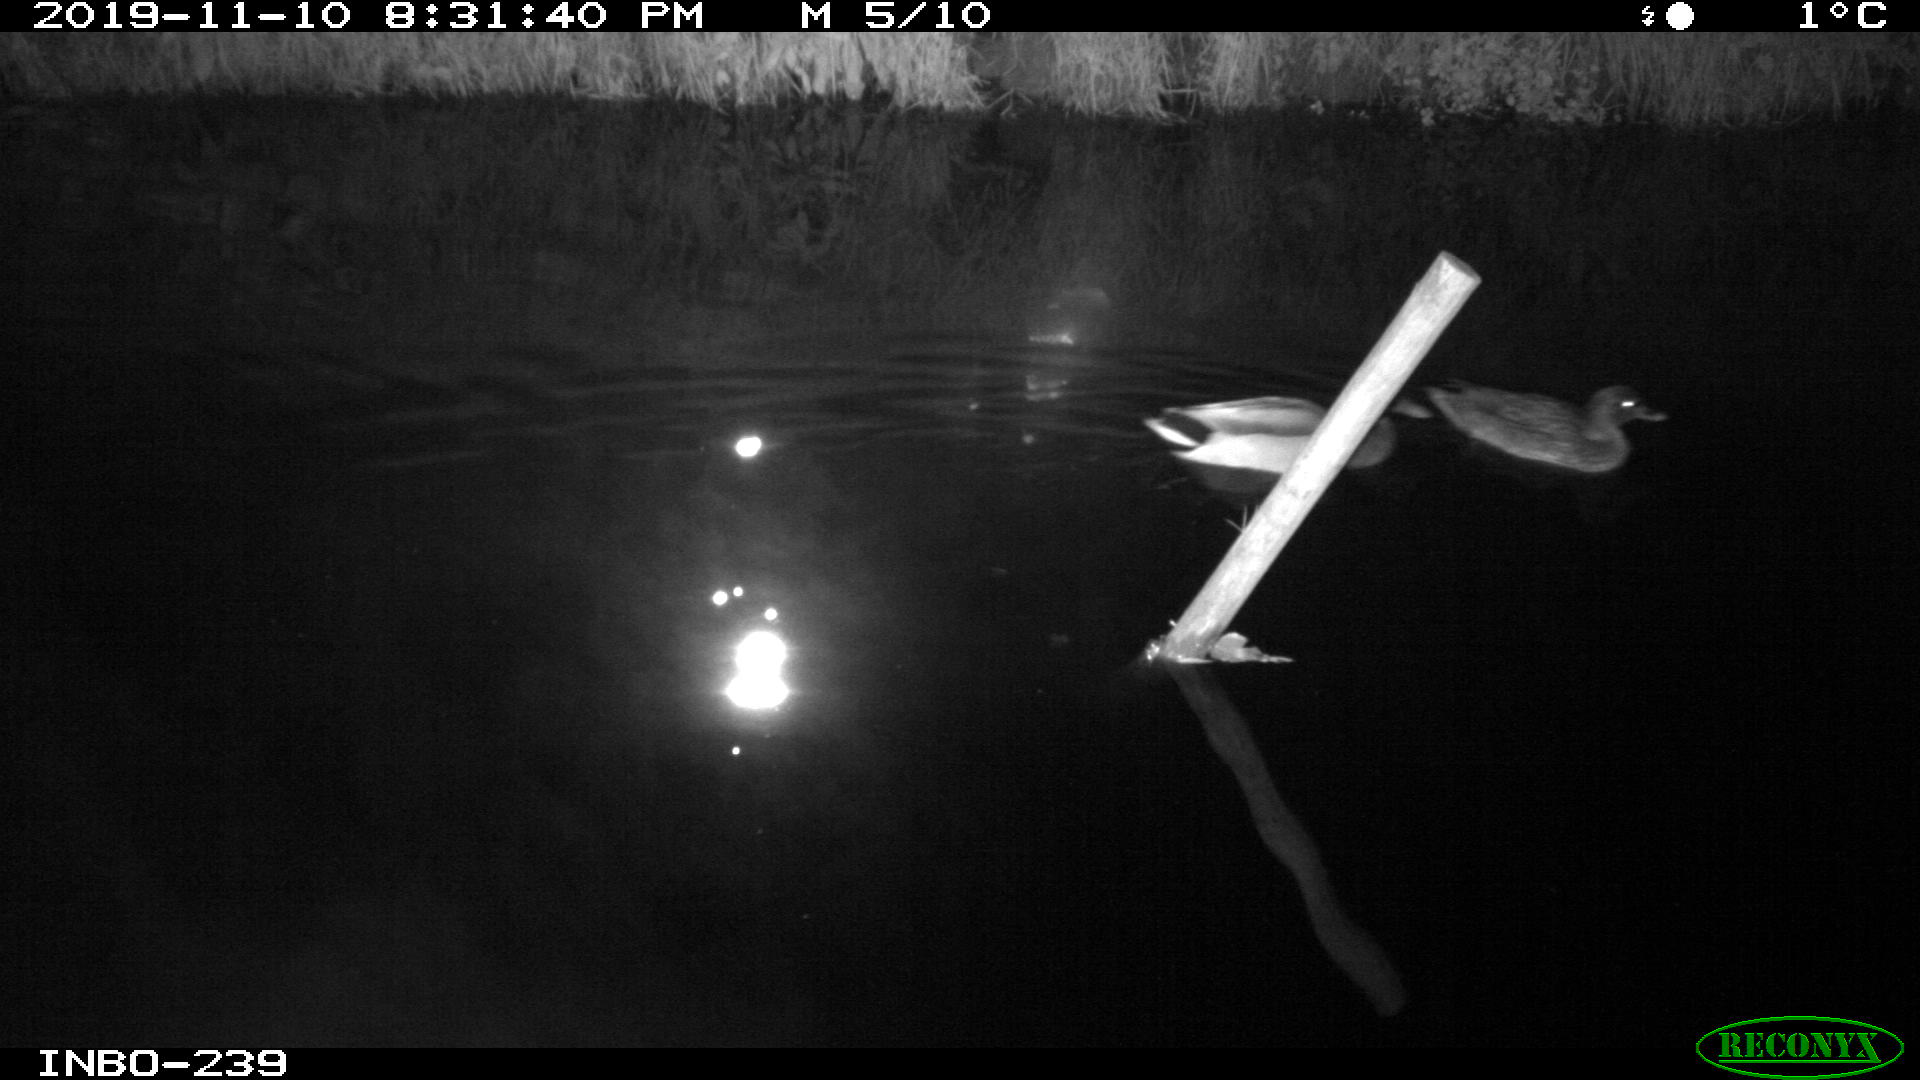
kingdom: Animalia
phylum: Chordata
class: Aves
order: Anseriformes
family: Anatidae
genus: Anas
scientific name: Anas platyrhynchos
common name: Mallard
